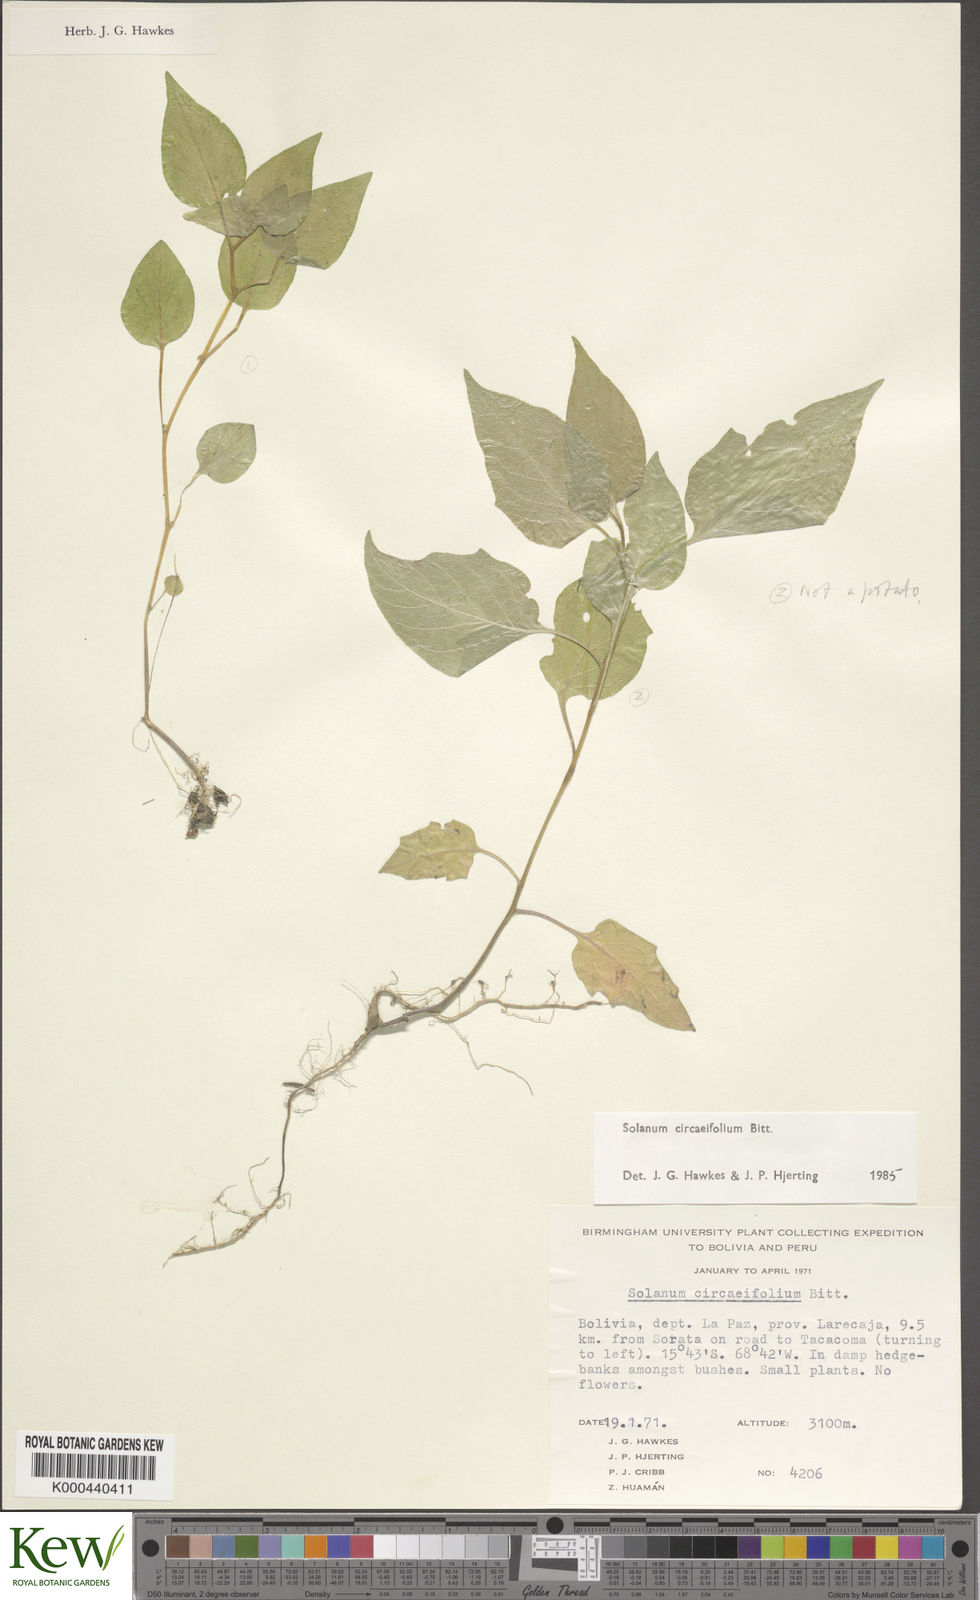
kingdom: Plantae
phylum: Tracheophyta
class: Magnoliopsida
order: Solanales
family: Solanaceae
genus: Solanum
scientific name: Solanum stipuloideum
